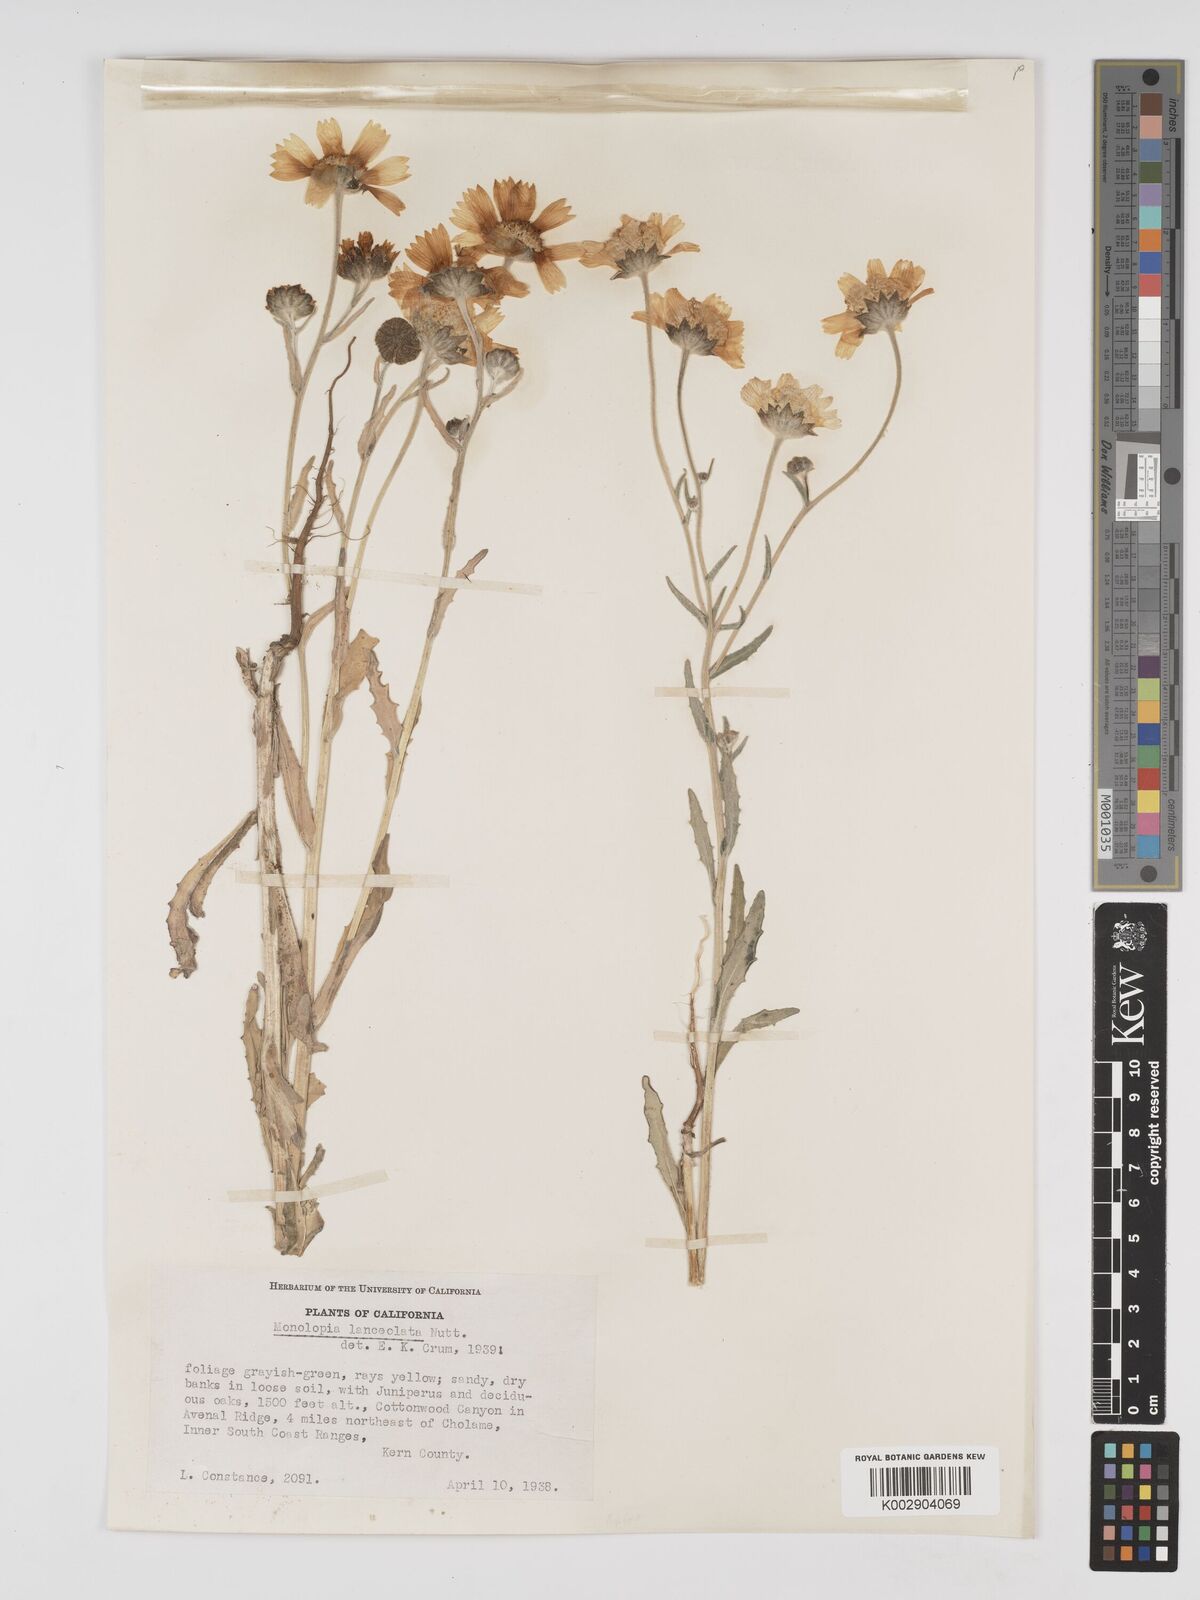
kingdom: Plantae
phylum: Tracheophyta
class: Magnoliopsida
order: Asterales
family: Asteraceae
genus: Monolopia
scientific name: Monolopia lanceolata
